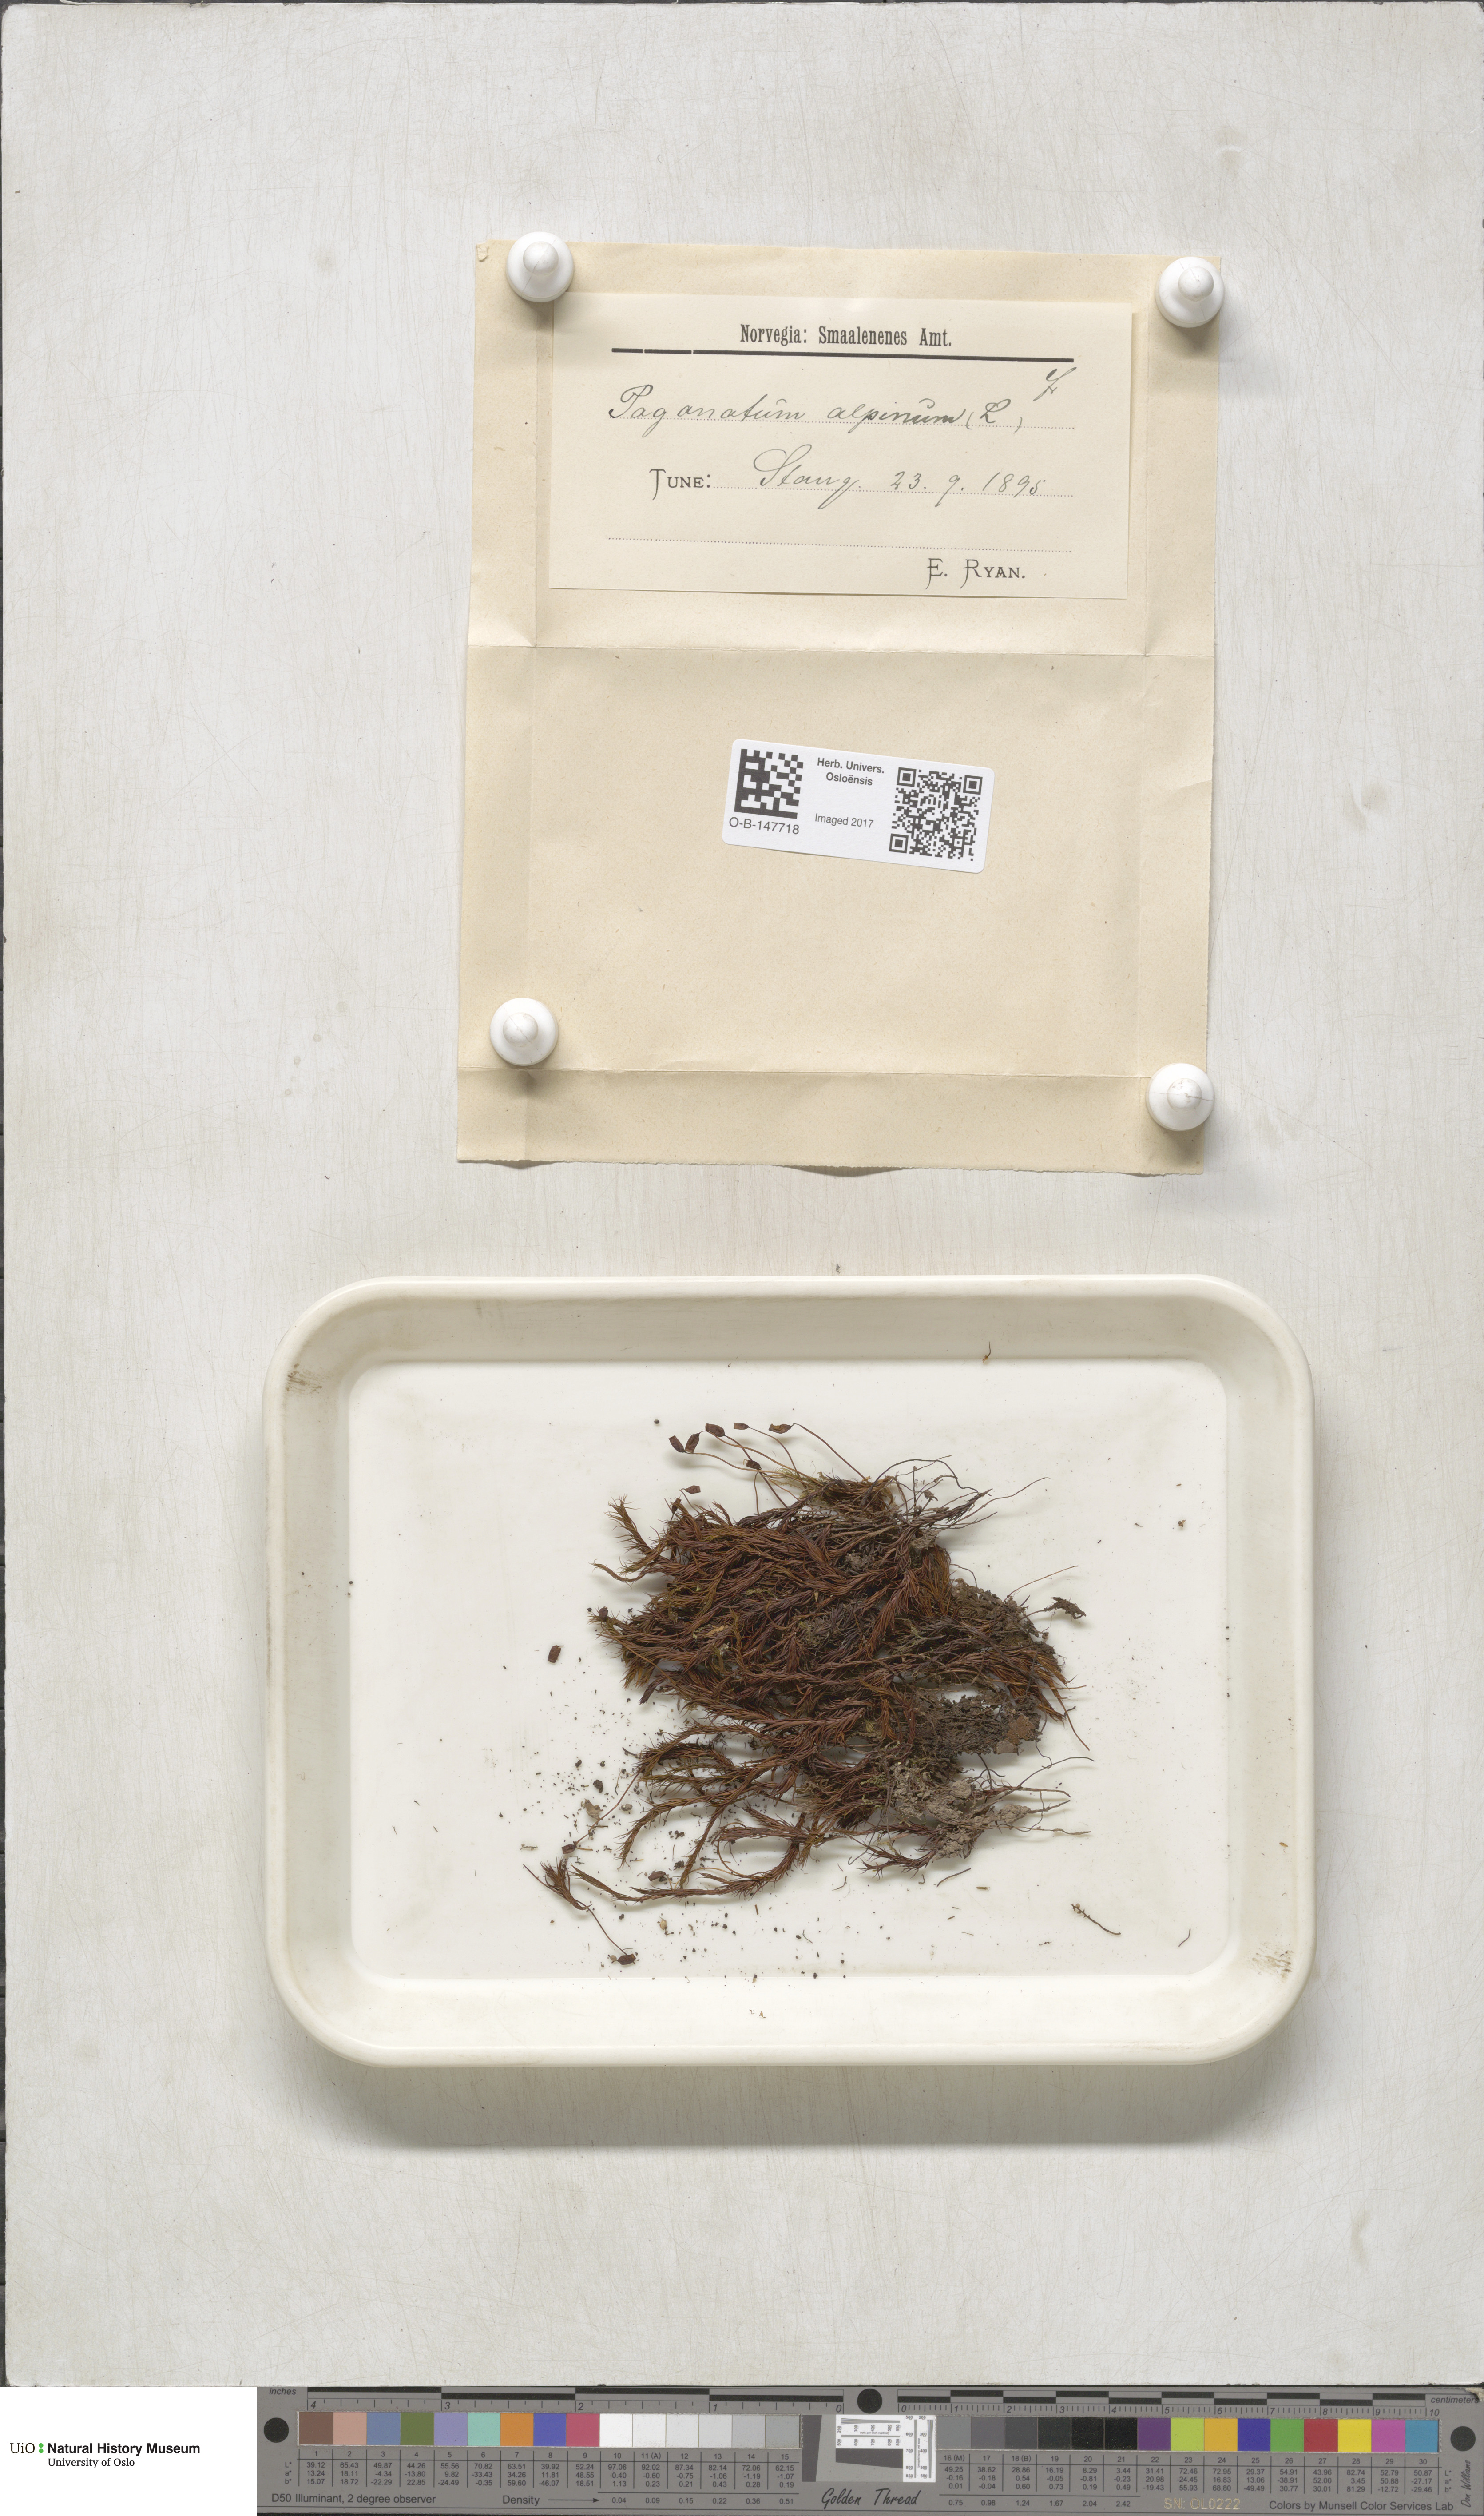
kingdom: Plantae
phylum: Bryophyta
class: Polytrichopsida
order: Polytrichales
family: Polytrichaceae
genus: Polytrichastrum
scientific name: Polytrichastrum alpinum
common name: Alpine haircap
